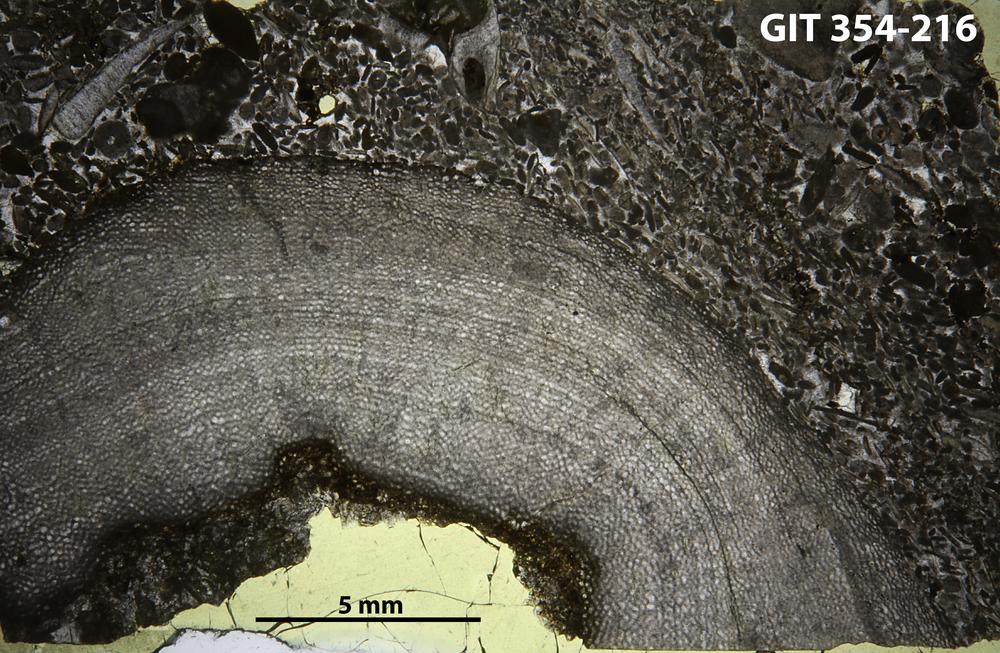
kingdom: Animalia
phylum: Porifera
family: Ecclimadictyidae
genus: Ecclimadictyon
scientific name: Ecclimadictyon Clathrodictyon microvesiculosum
